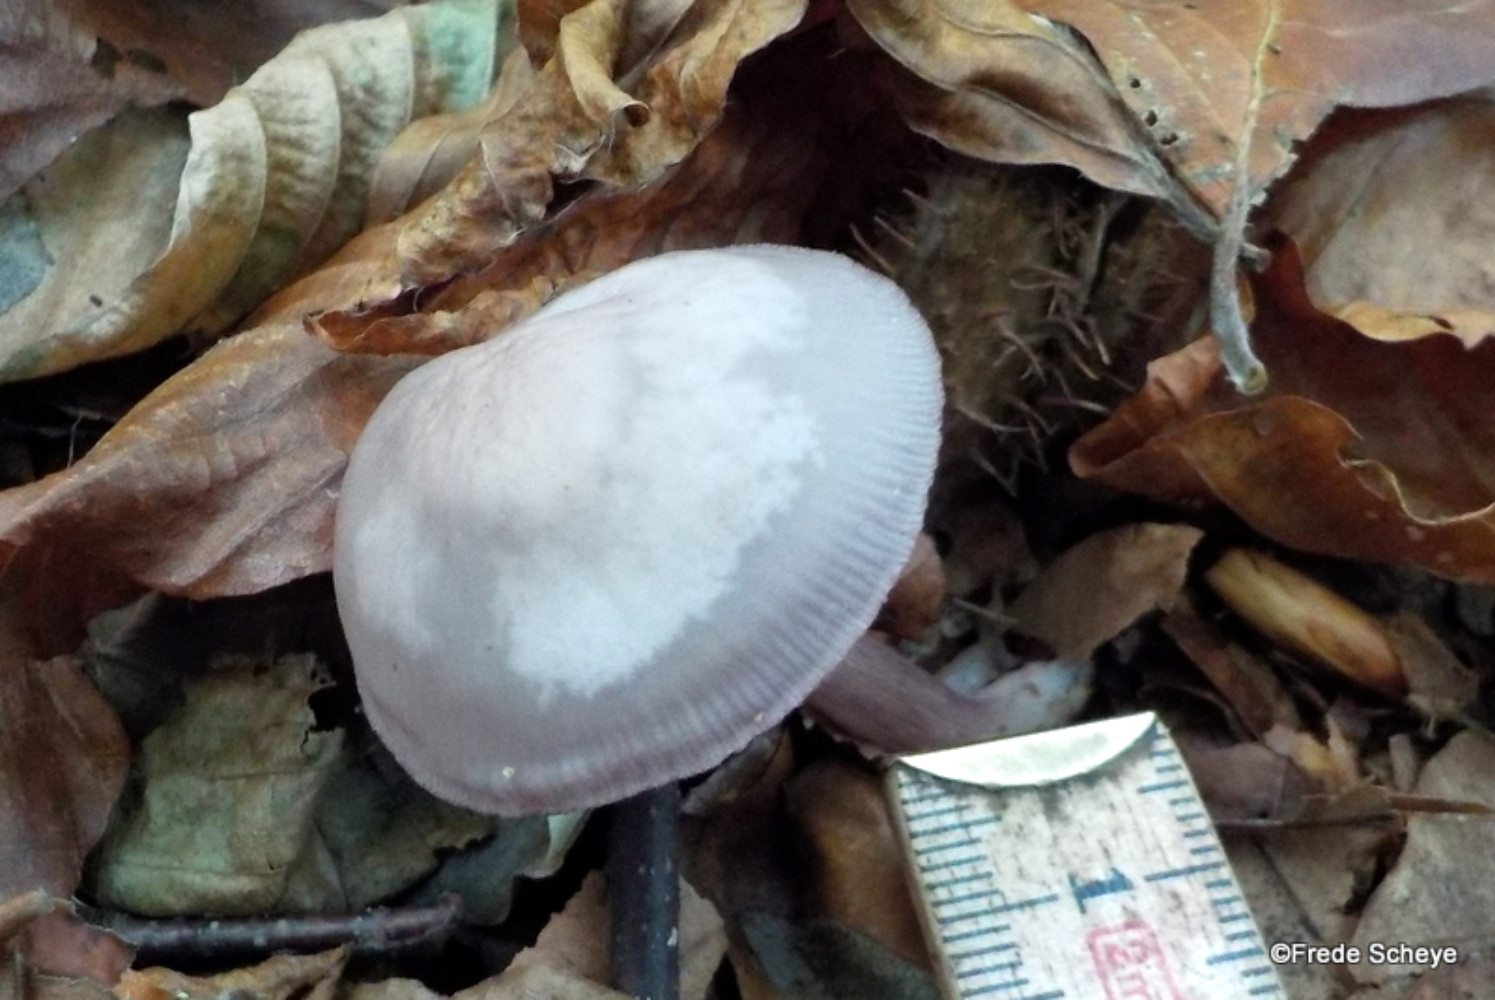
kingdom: Fungi
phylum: Basidiomycota
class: Agaricomycetes
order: Agaricales
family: Mycenaceae
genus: Mycena
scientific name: Mycena pelianthina
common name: mørkbladet huesvamp
